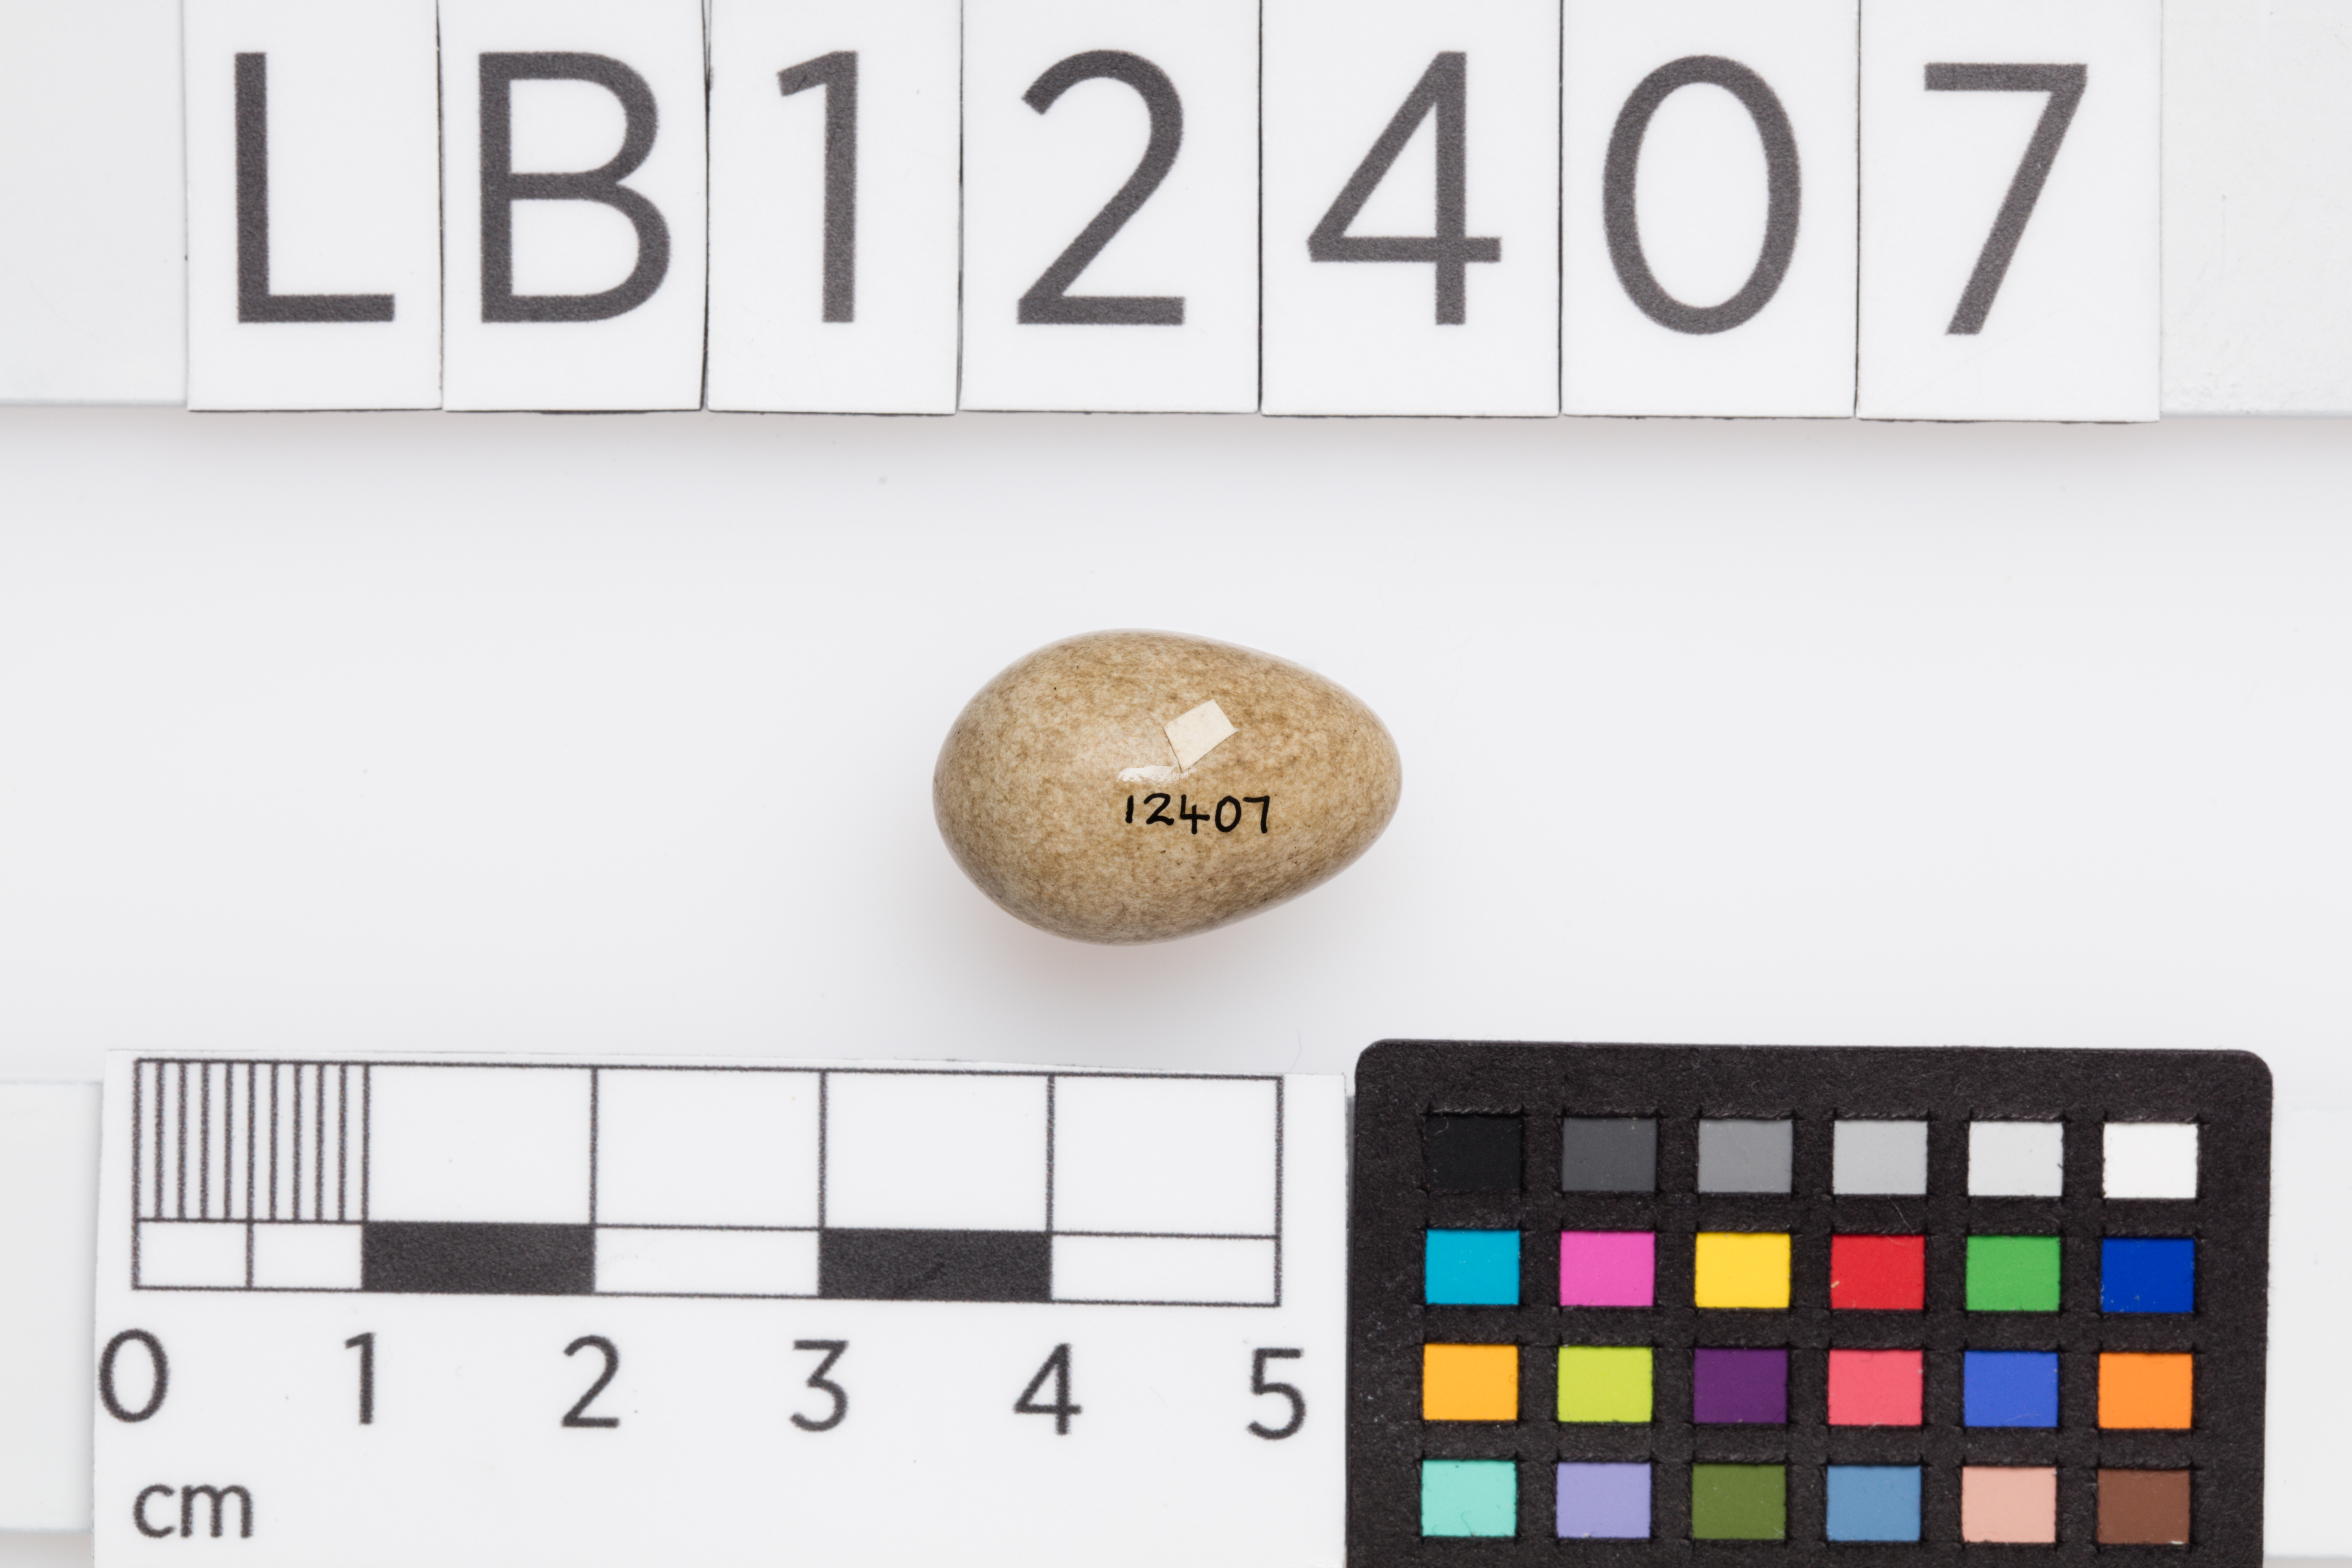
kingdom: Animalia
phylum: Chordata
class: Aves
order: Passeriformes
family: Acrocephalidae
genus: Acrocephalus
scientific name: Acrocephalus schoenobaenus
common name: Sedge warbler
